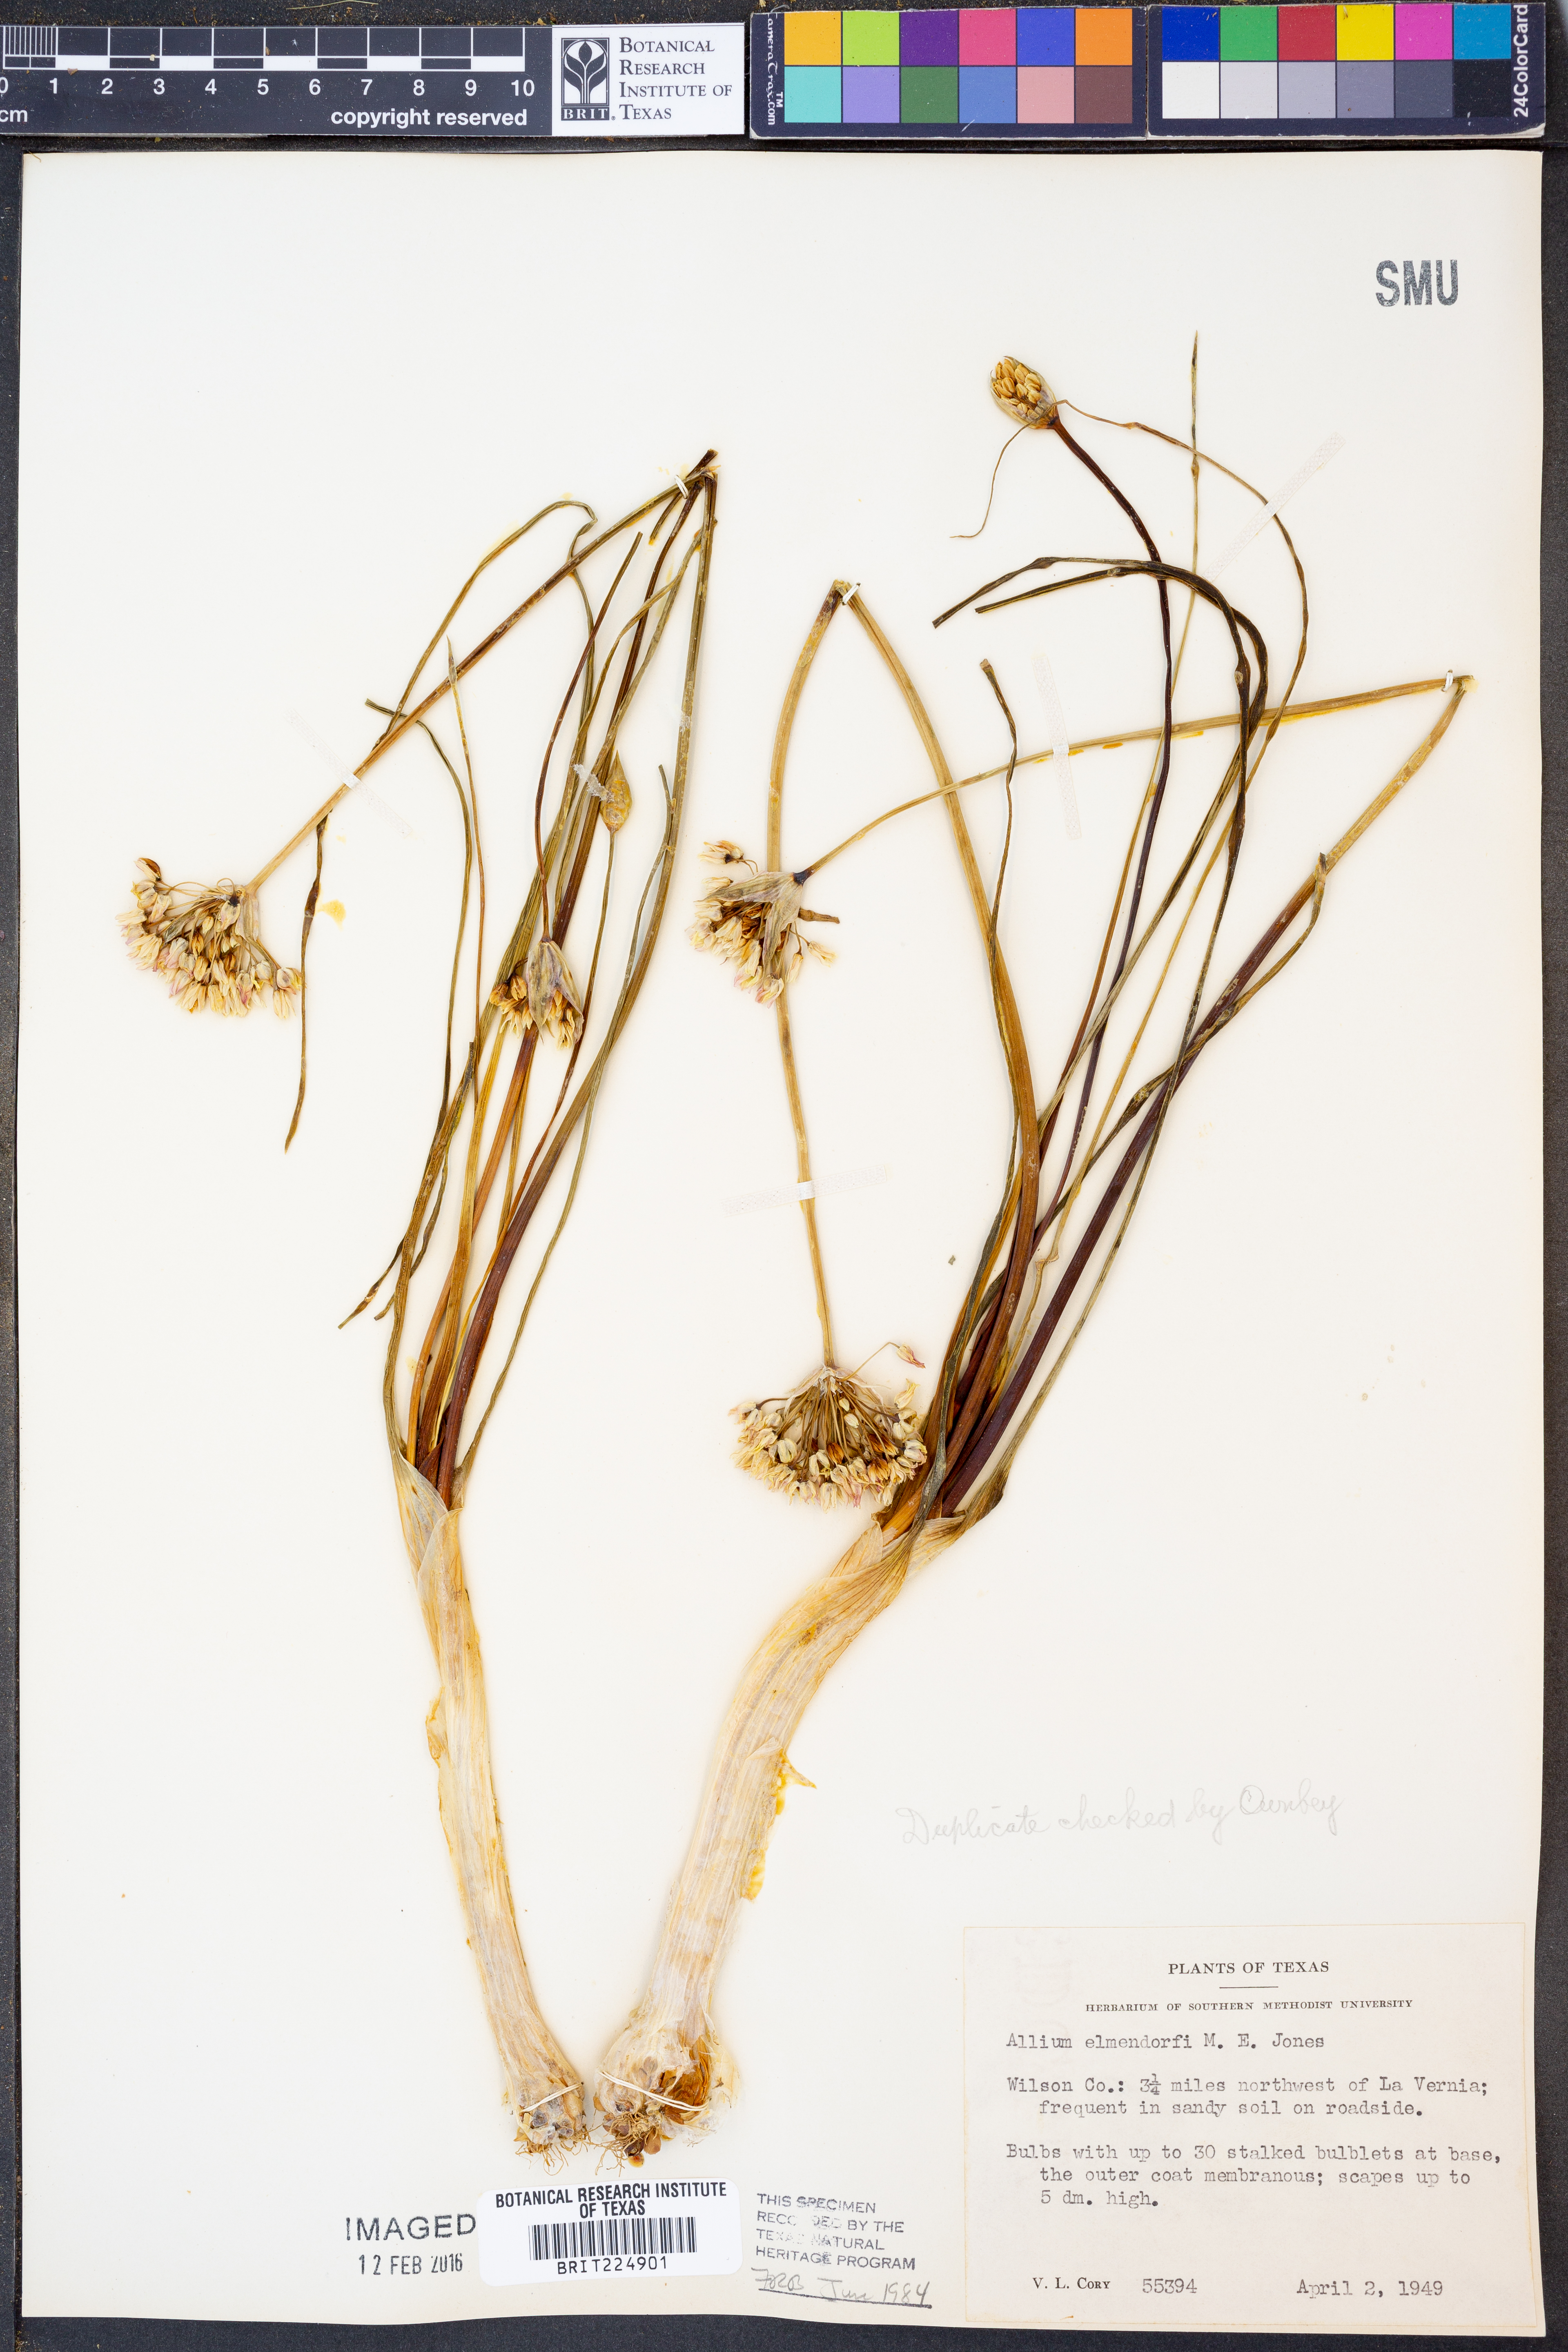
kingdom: Plantae
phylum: Tracheophyta
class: Liliopsida
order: Asparagales
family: Amaryllidaceae
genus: Allium
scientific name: Allium elmendorfii
